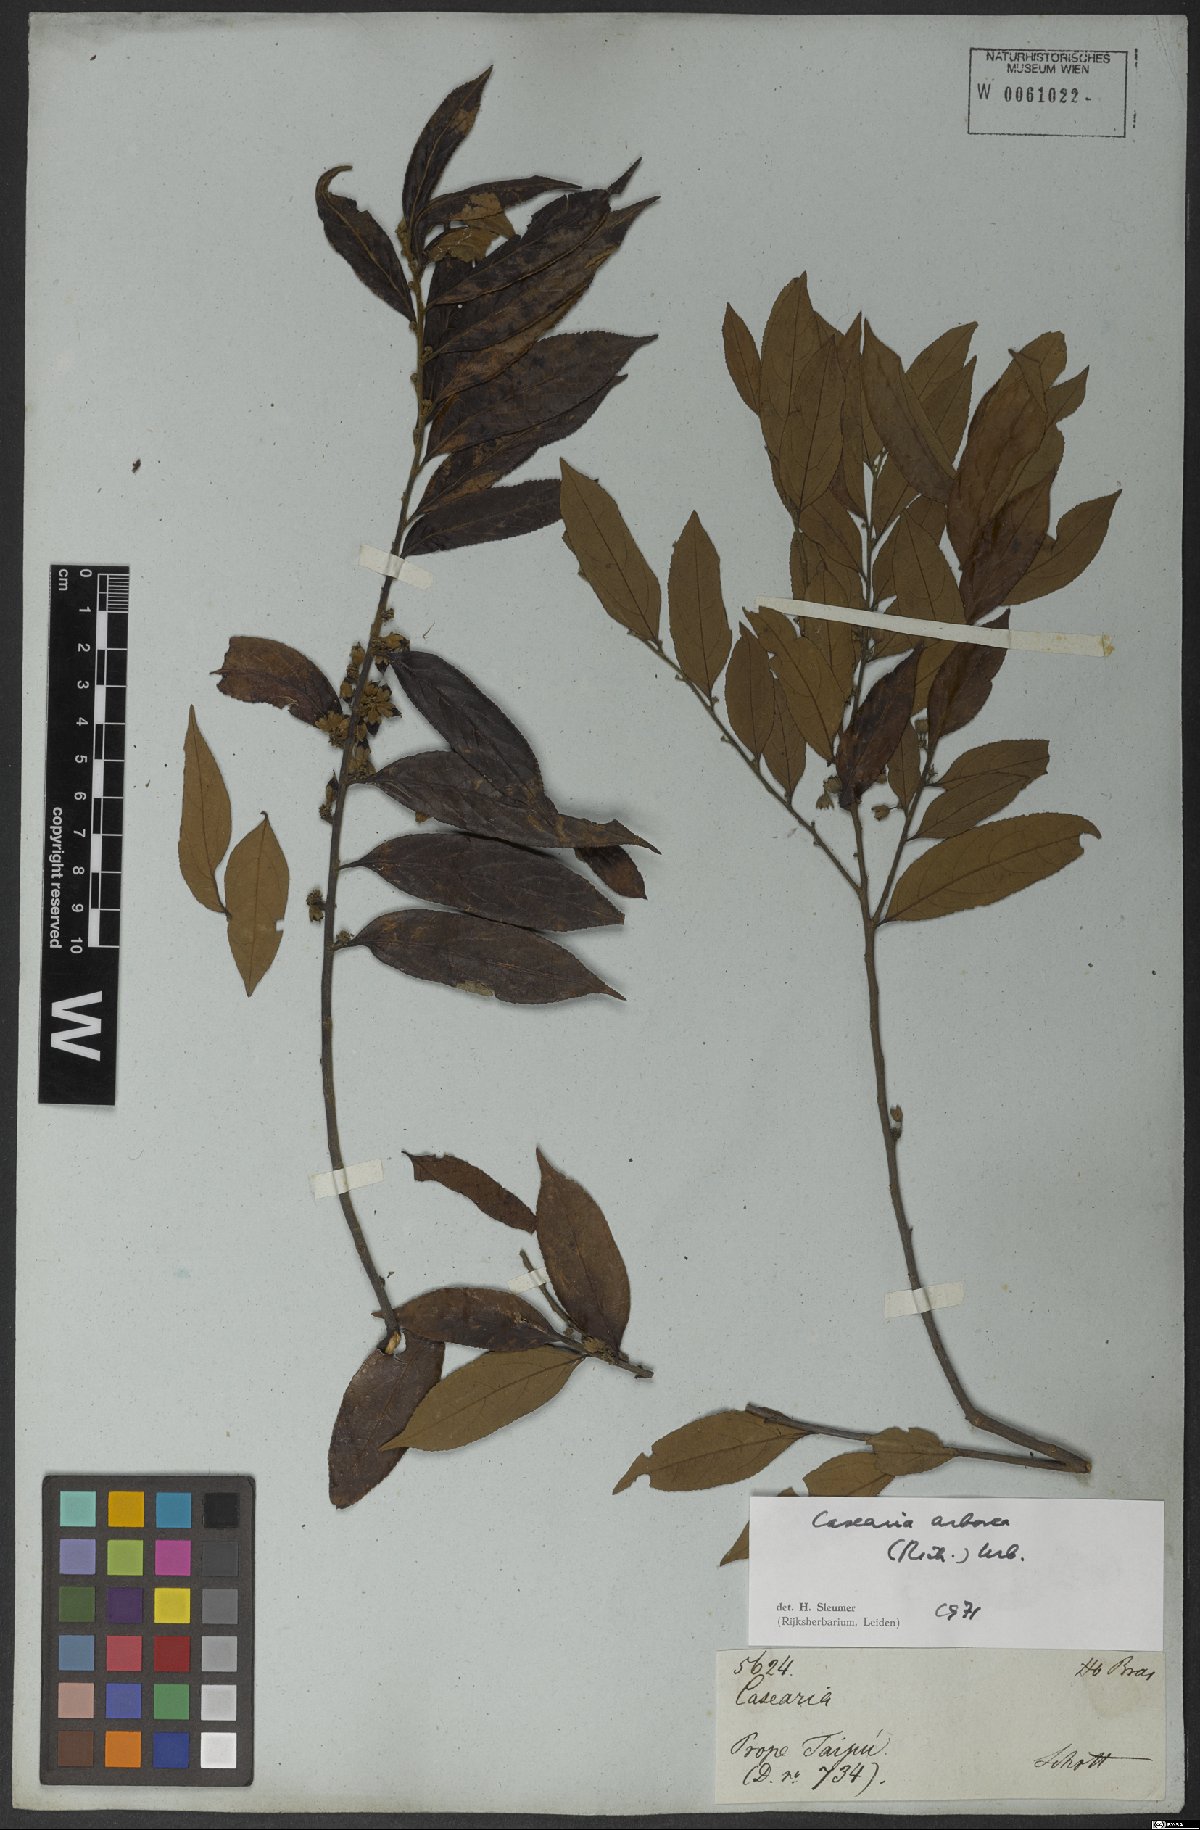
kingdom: Plantae
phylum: Tracheophyta
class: Magnoliopsida
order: Malpighiales
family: Salicaceae
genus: Casearia
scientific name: Casearia arborea
